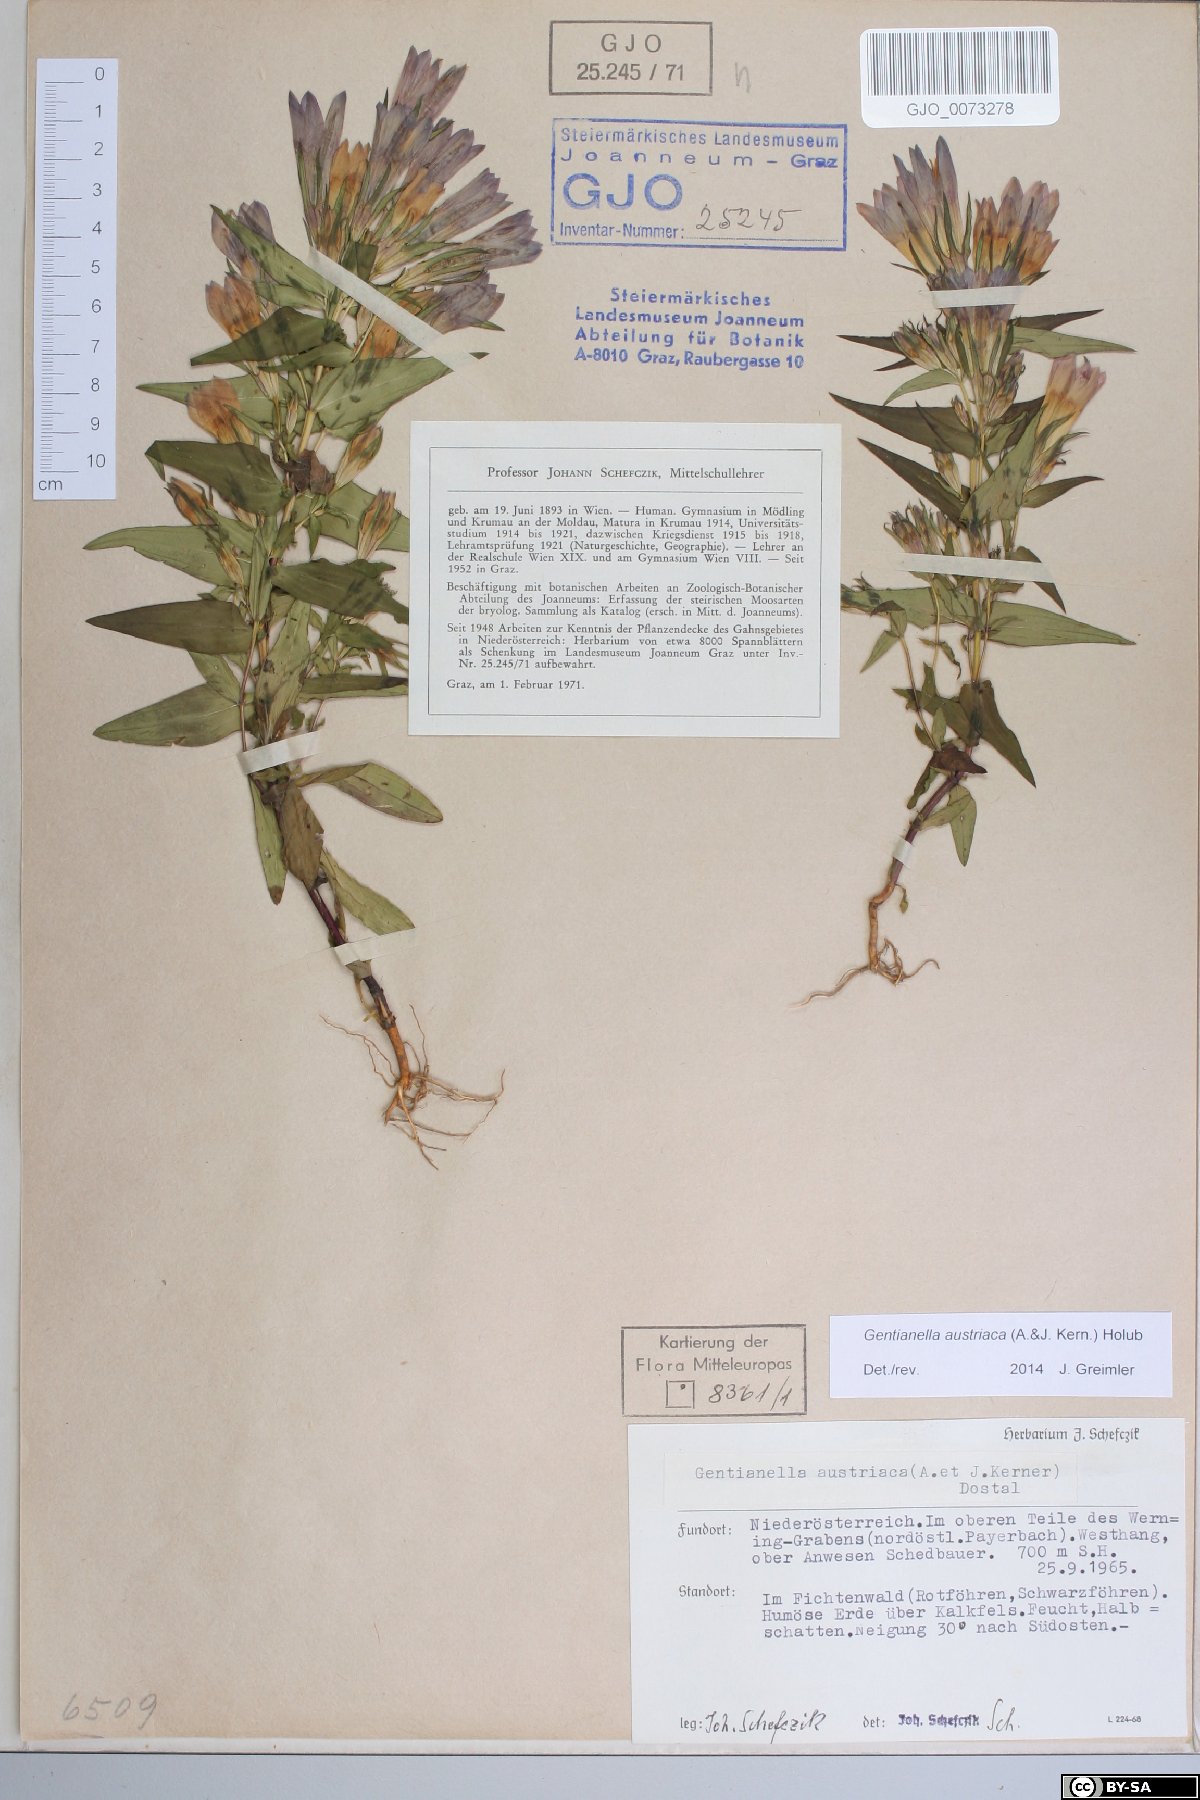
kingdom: Plantae
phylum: Tracheophyta
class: Magnoliopsida
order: Gentianales
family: Gentianaceae
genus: Gentianella
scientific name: Gentianella austriaca
